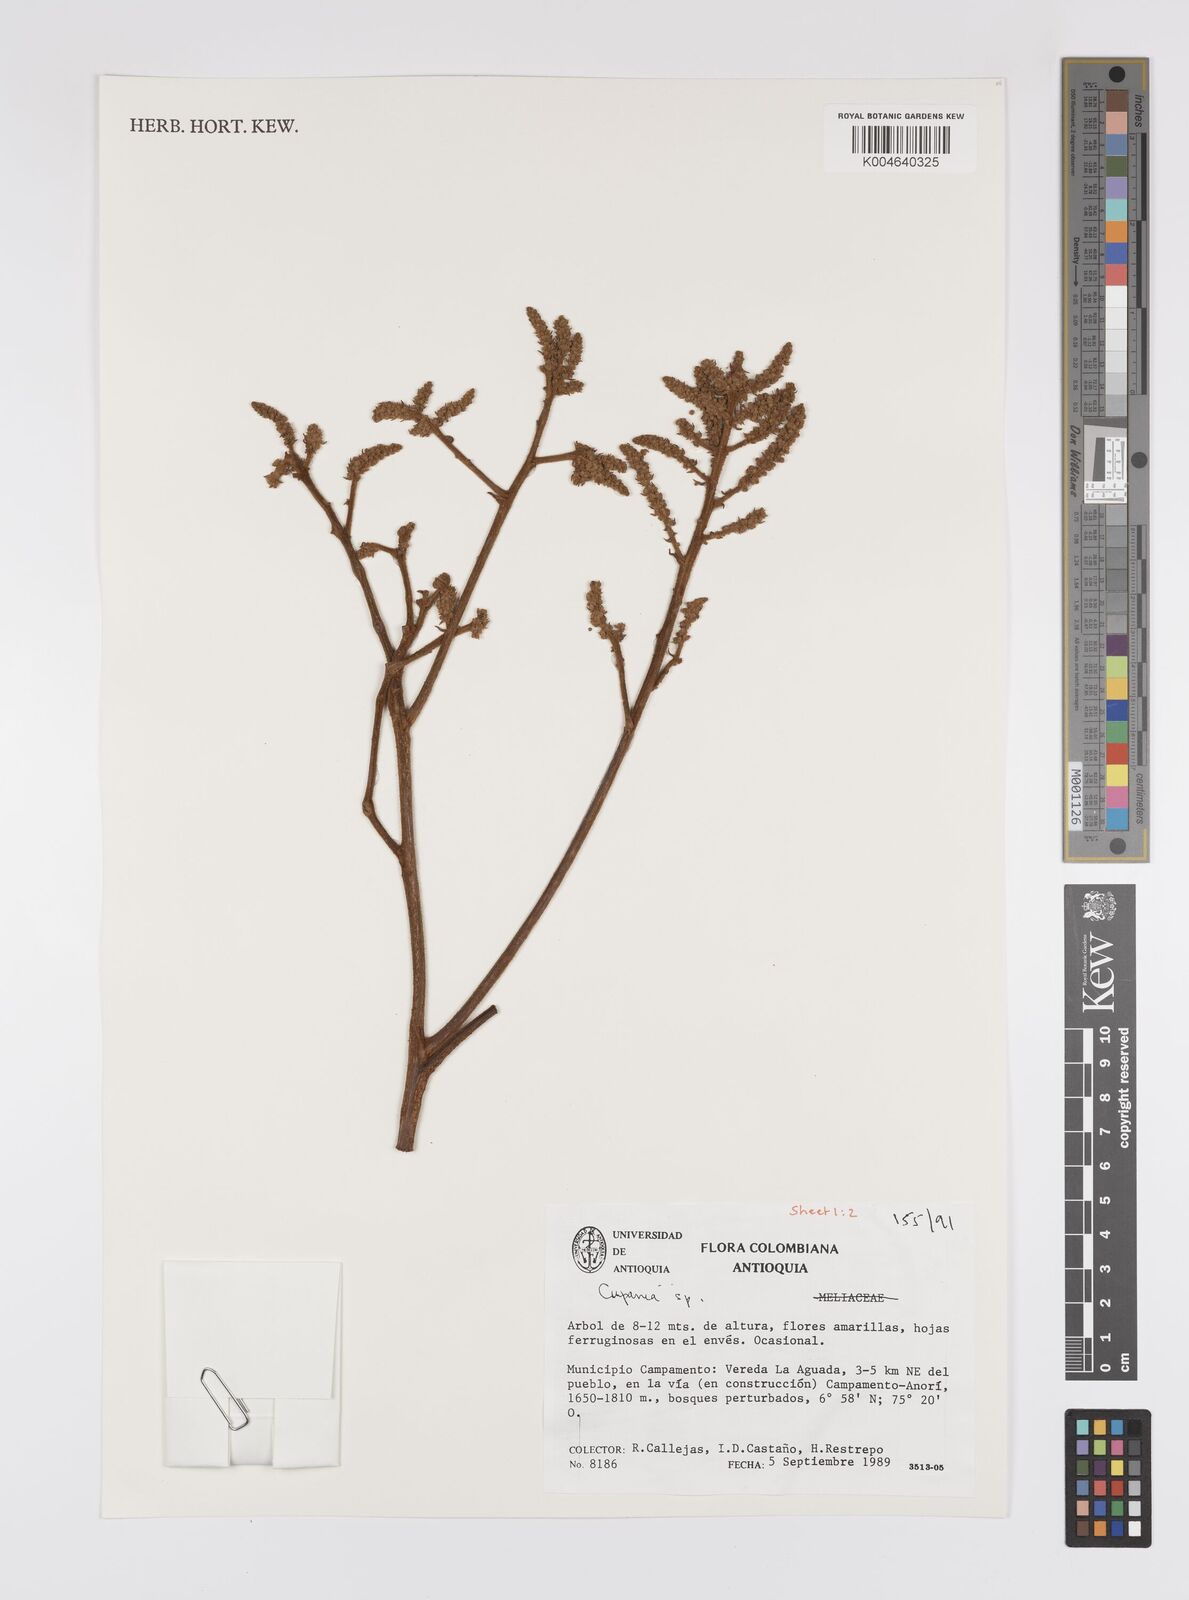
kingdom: Plantae
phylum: Tracheophyta
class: Magnoliopsida
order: Sapindales
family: Sapindaceae
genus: Cupania
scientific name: Cupania
